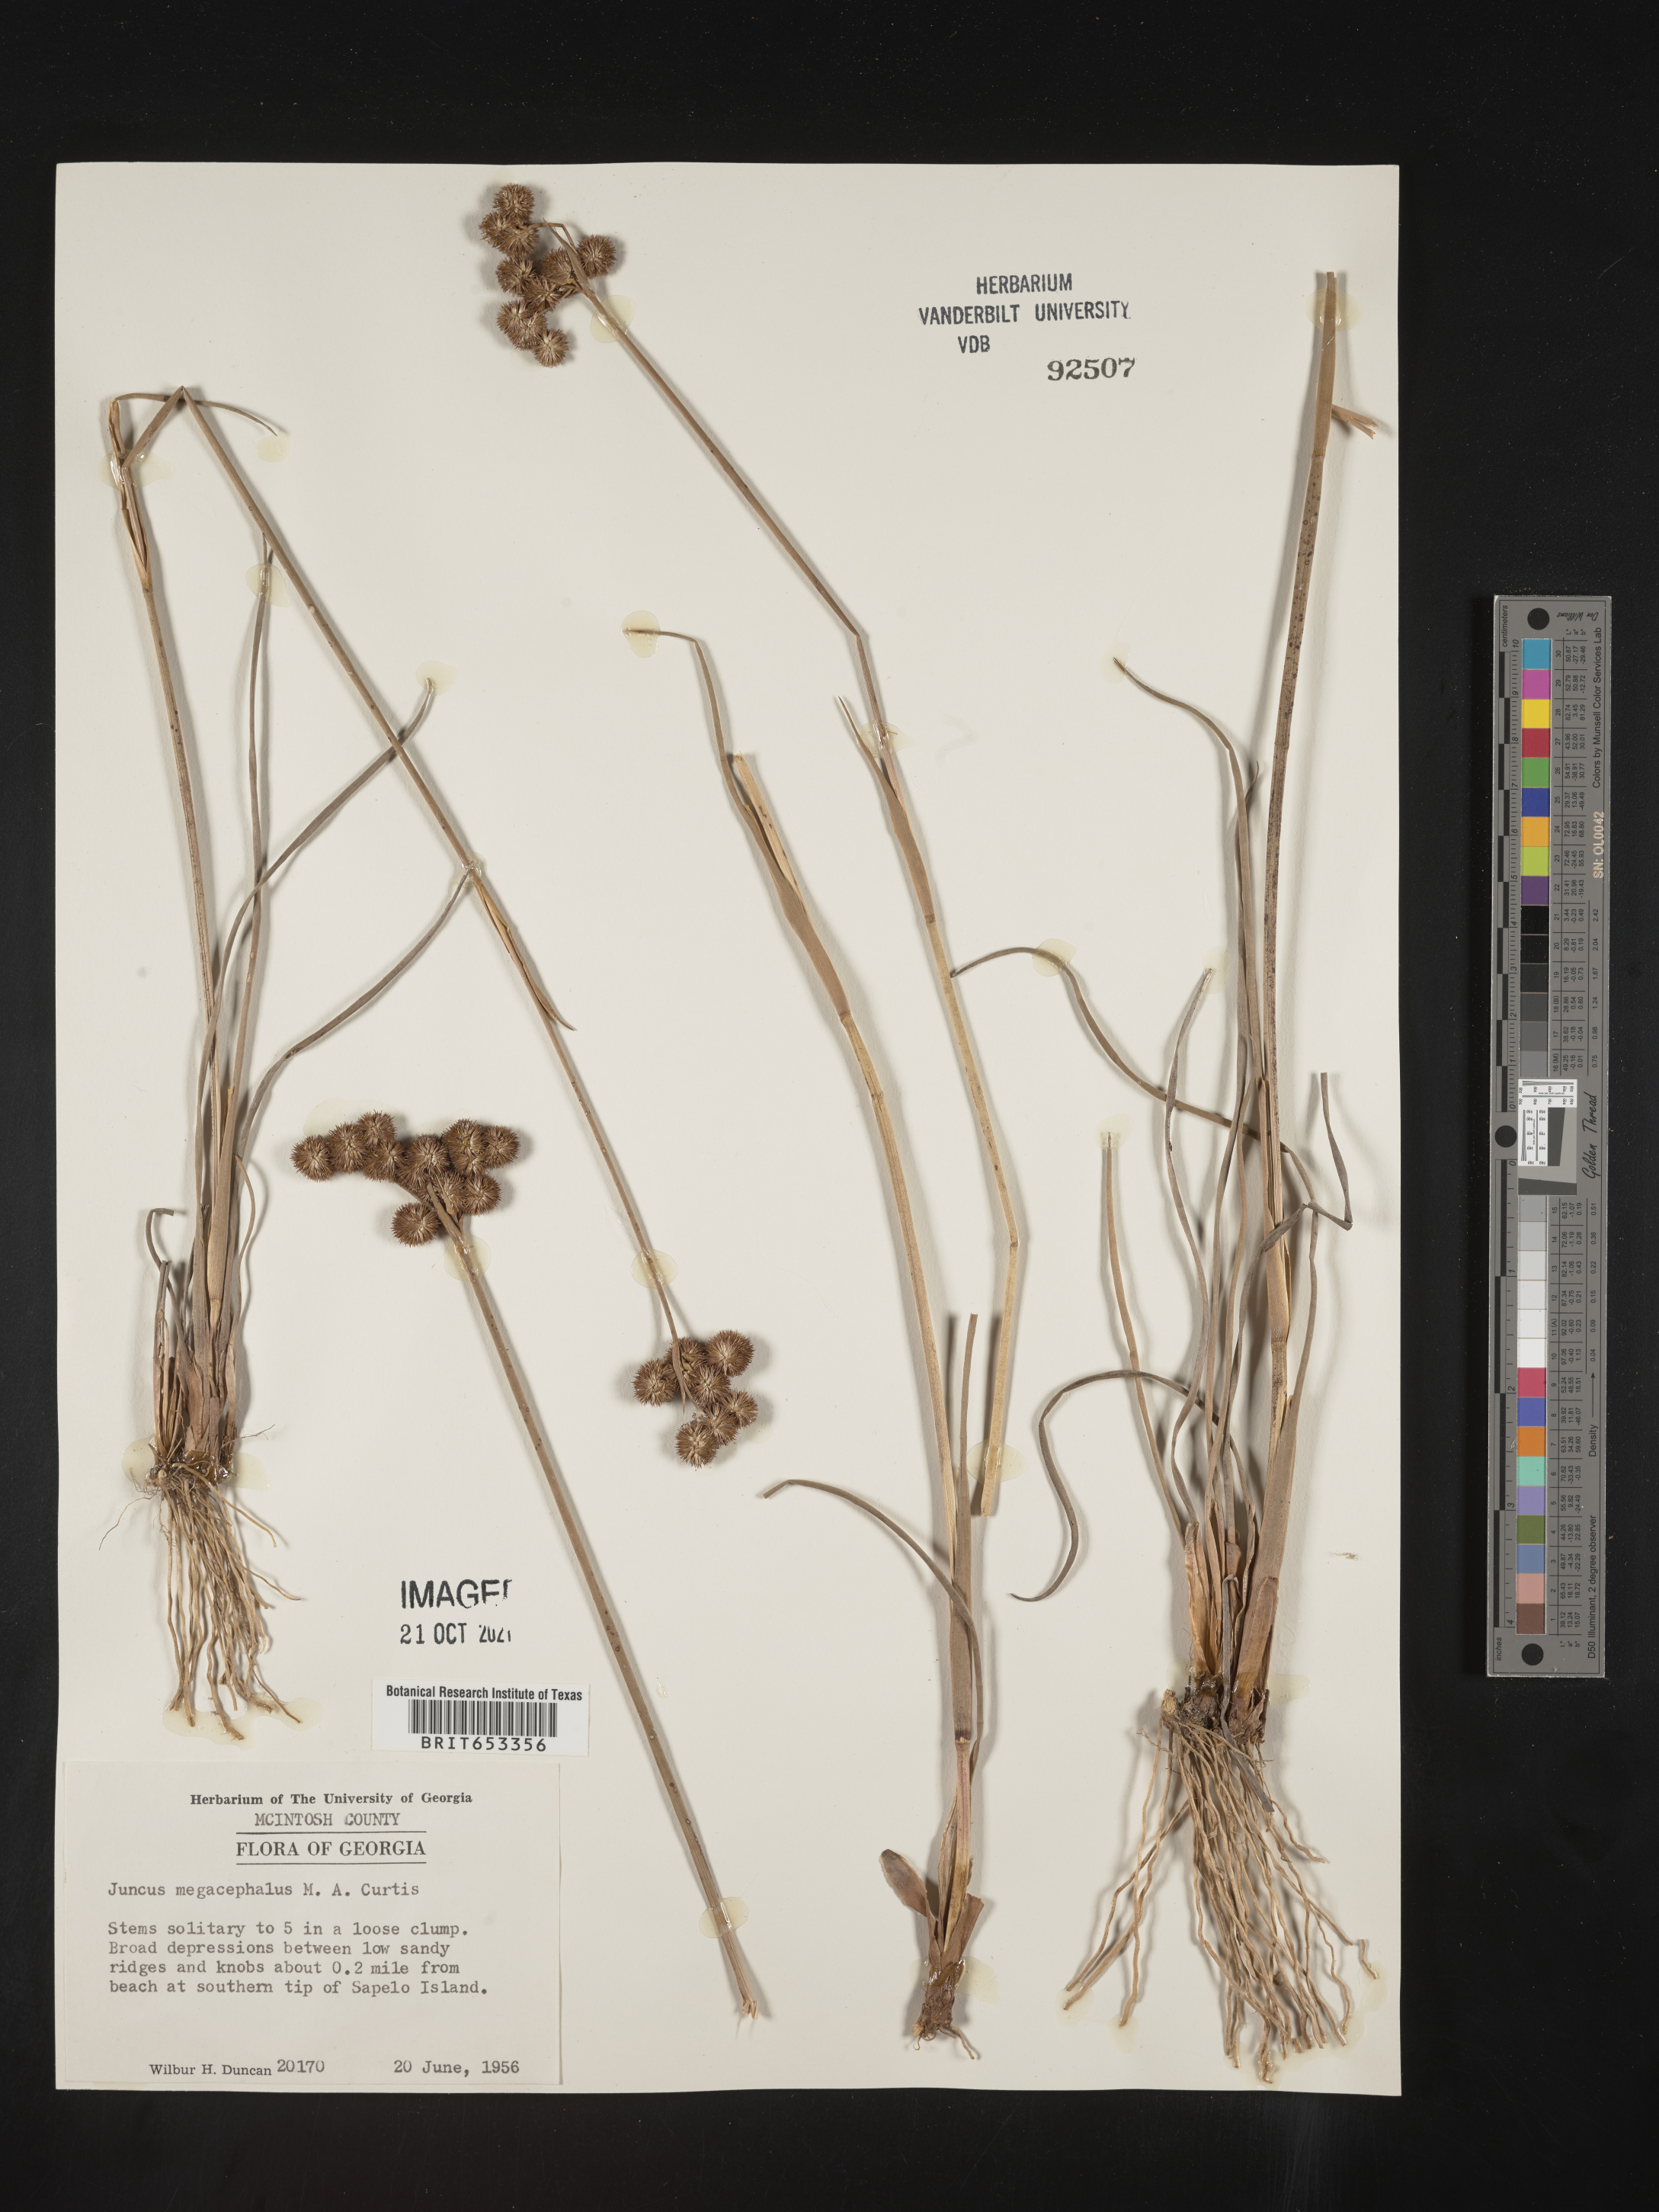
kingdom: Plantae
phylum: Tracheophyta
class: Liliopsida
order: Poales
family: Juncaceae
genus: Juncus
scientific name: Juncus megacephalus
